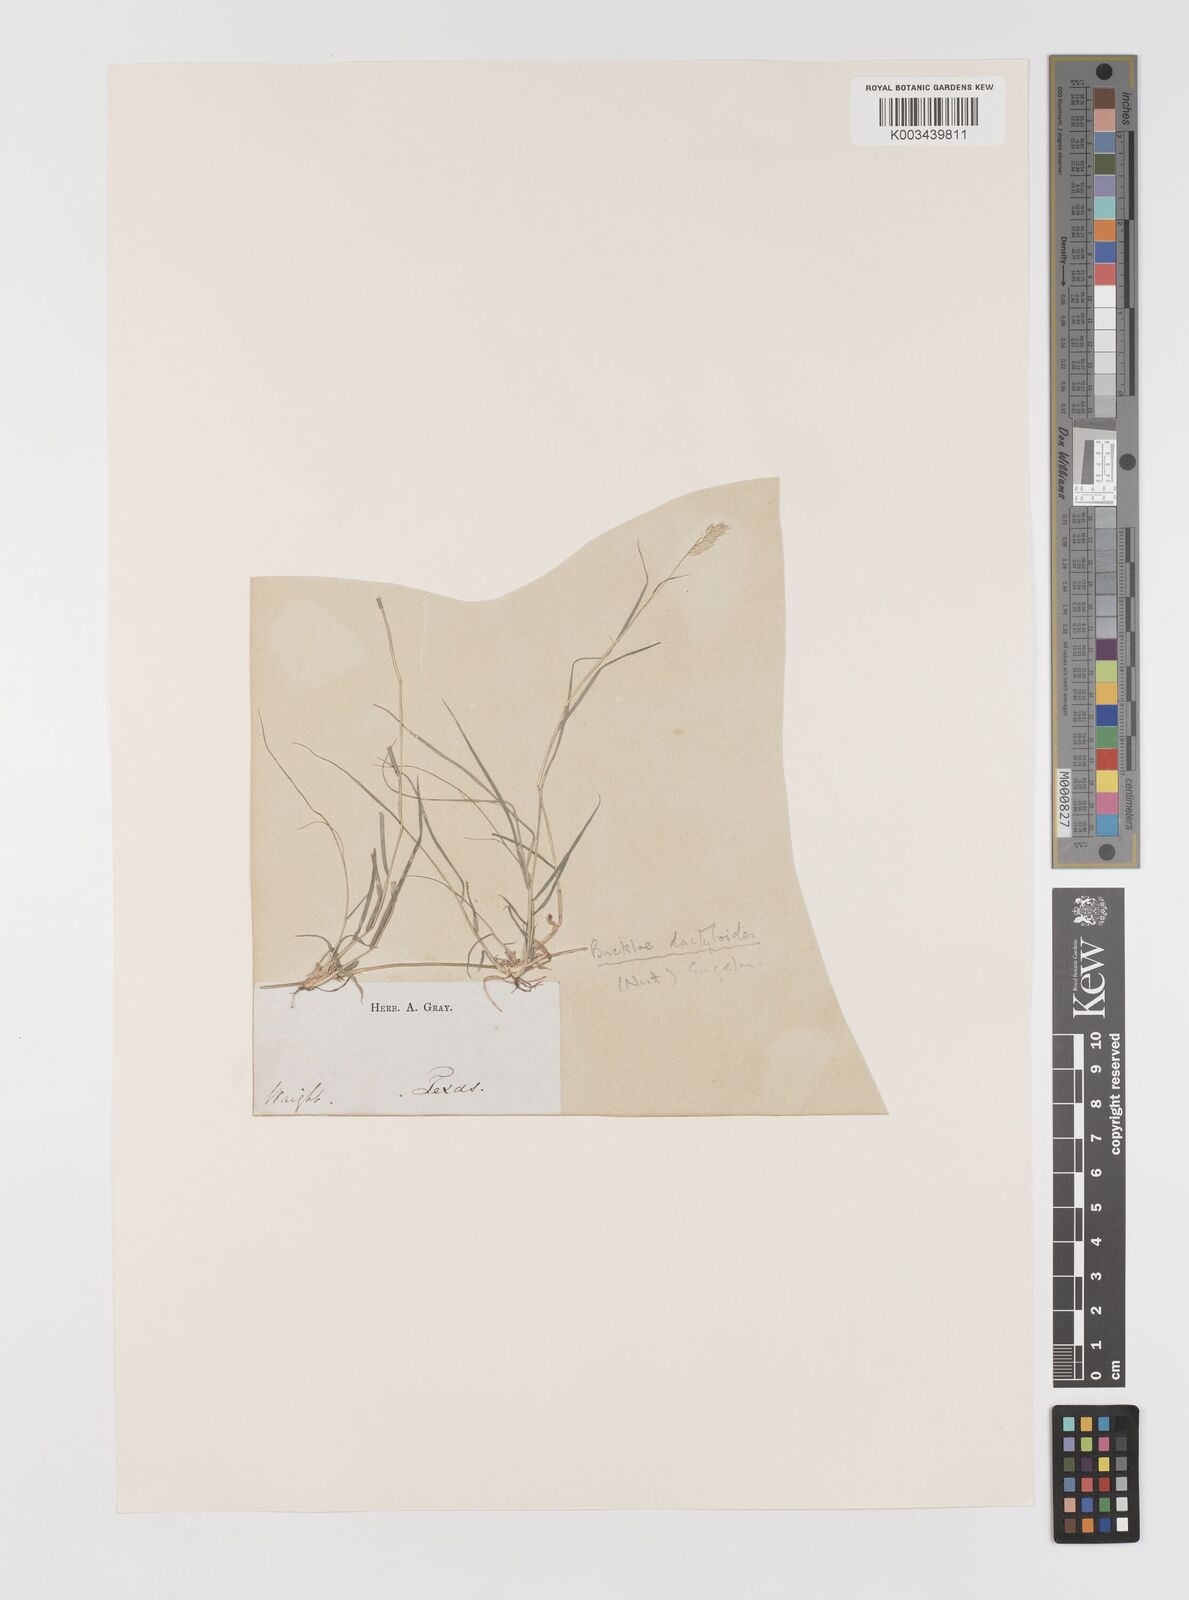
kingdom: Plantae
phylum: Tracheophyta
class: Liliopsida
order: Poales
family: Poaceae
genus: Bouteloua
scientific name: Bouteloua dactyloides
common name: Buffalo grass
